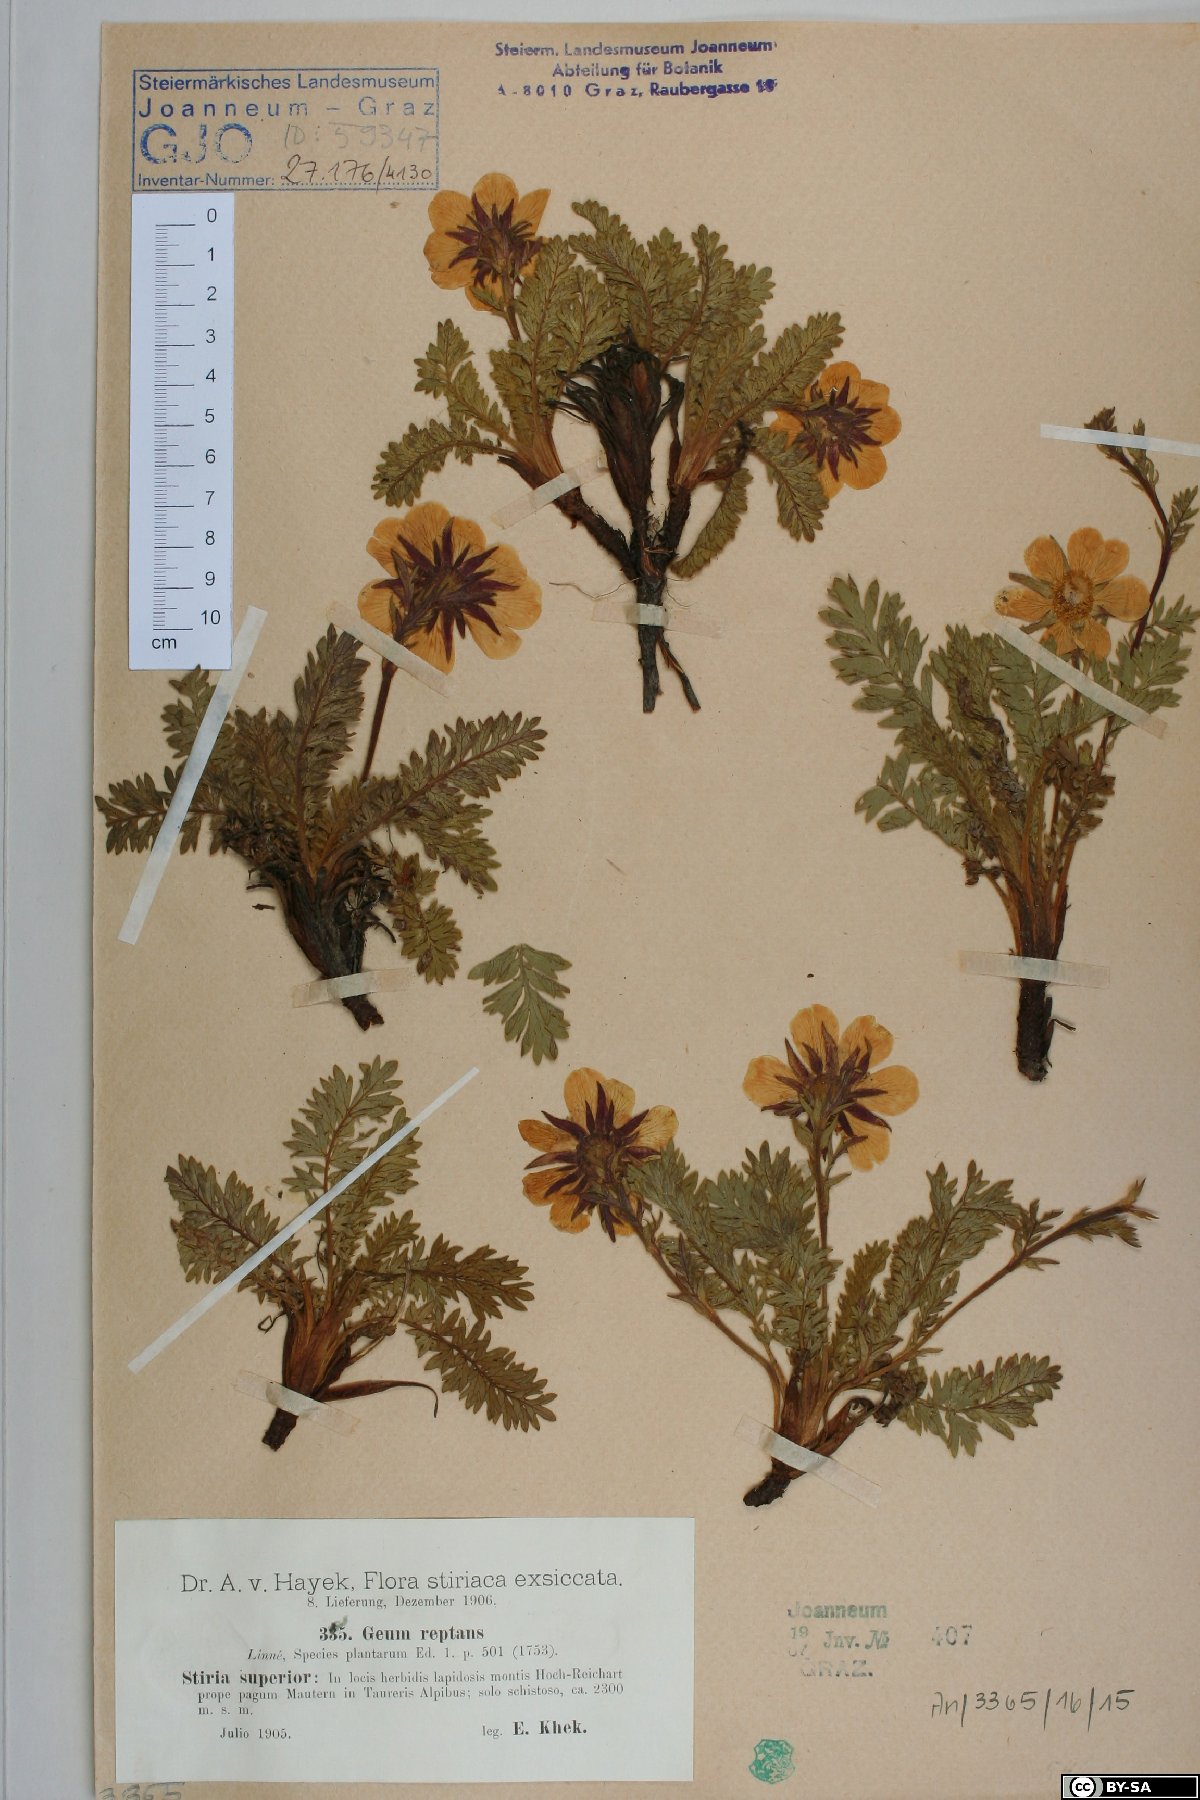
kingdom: Plantae
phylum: Tracheophyta
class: Magnoliopsida
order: Rosales
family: Rosaceae
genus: Geum
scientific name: Geum reptans
